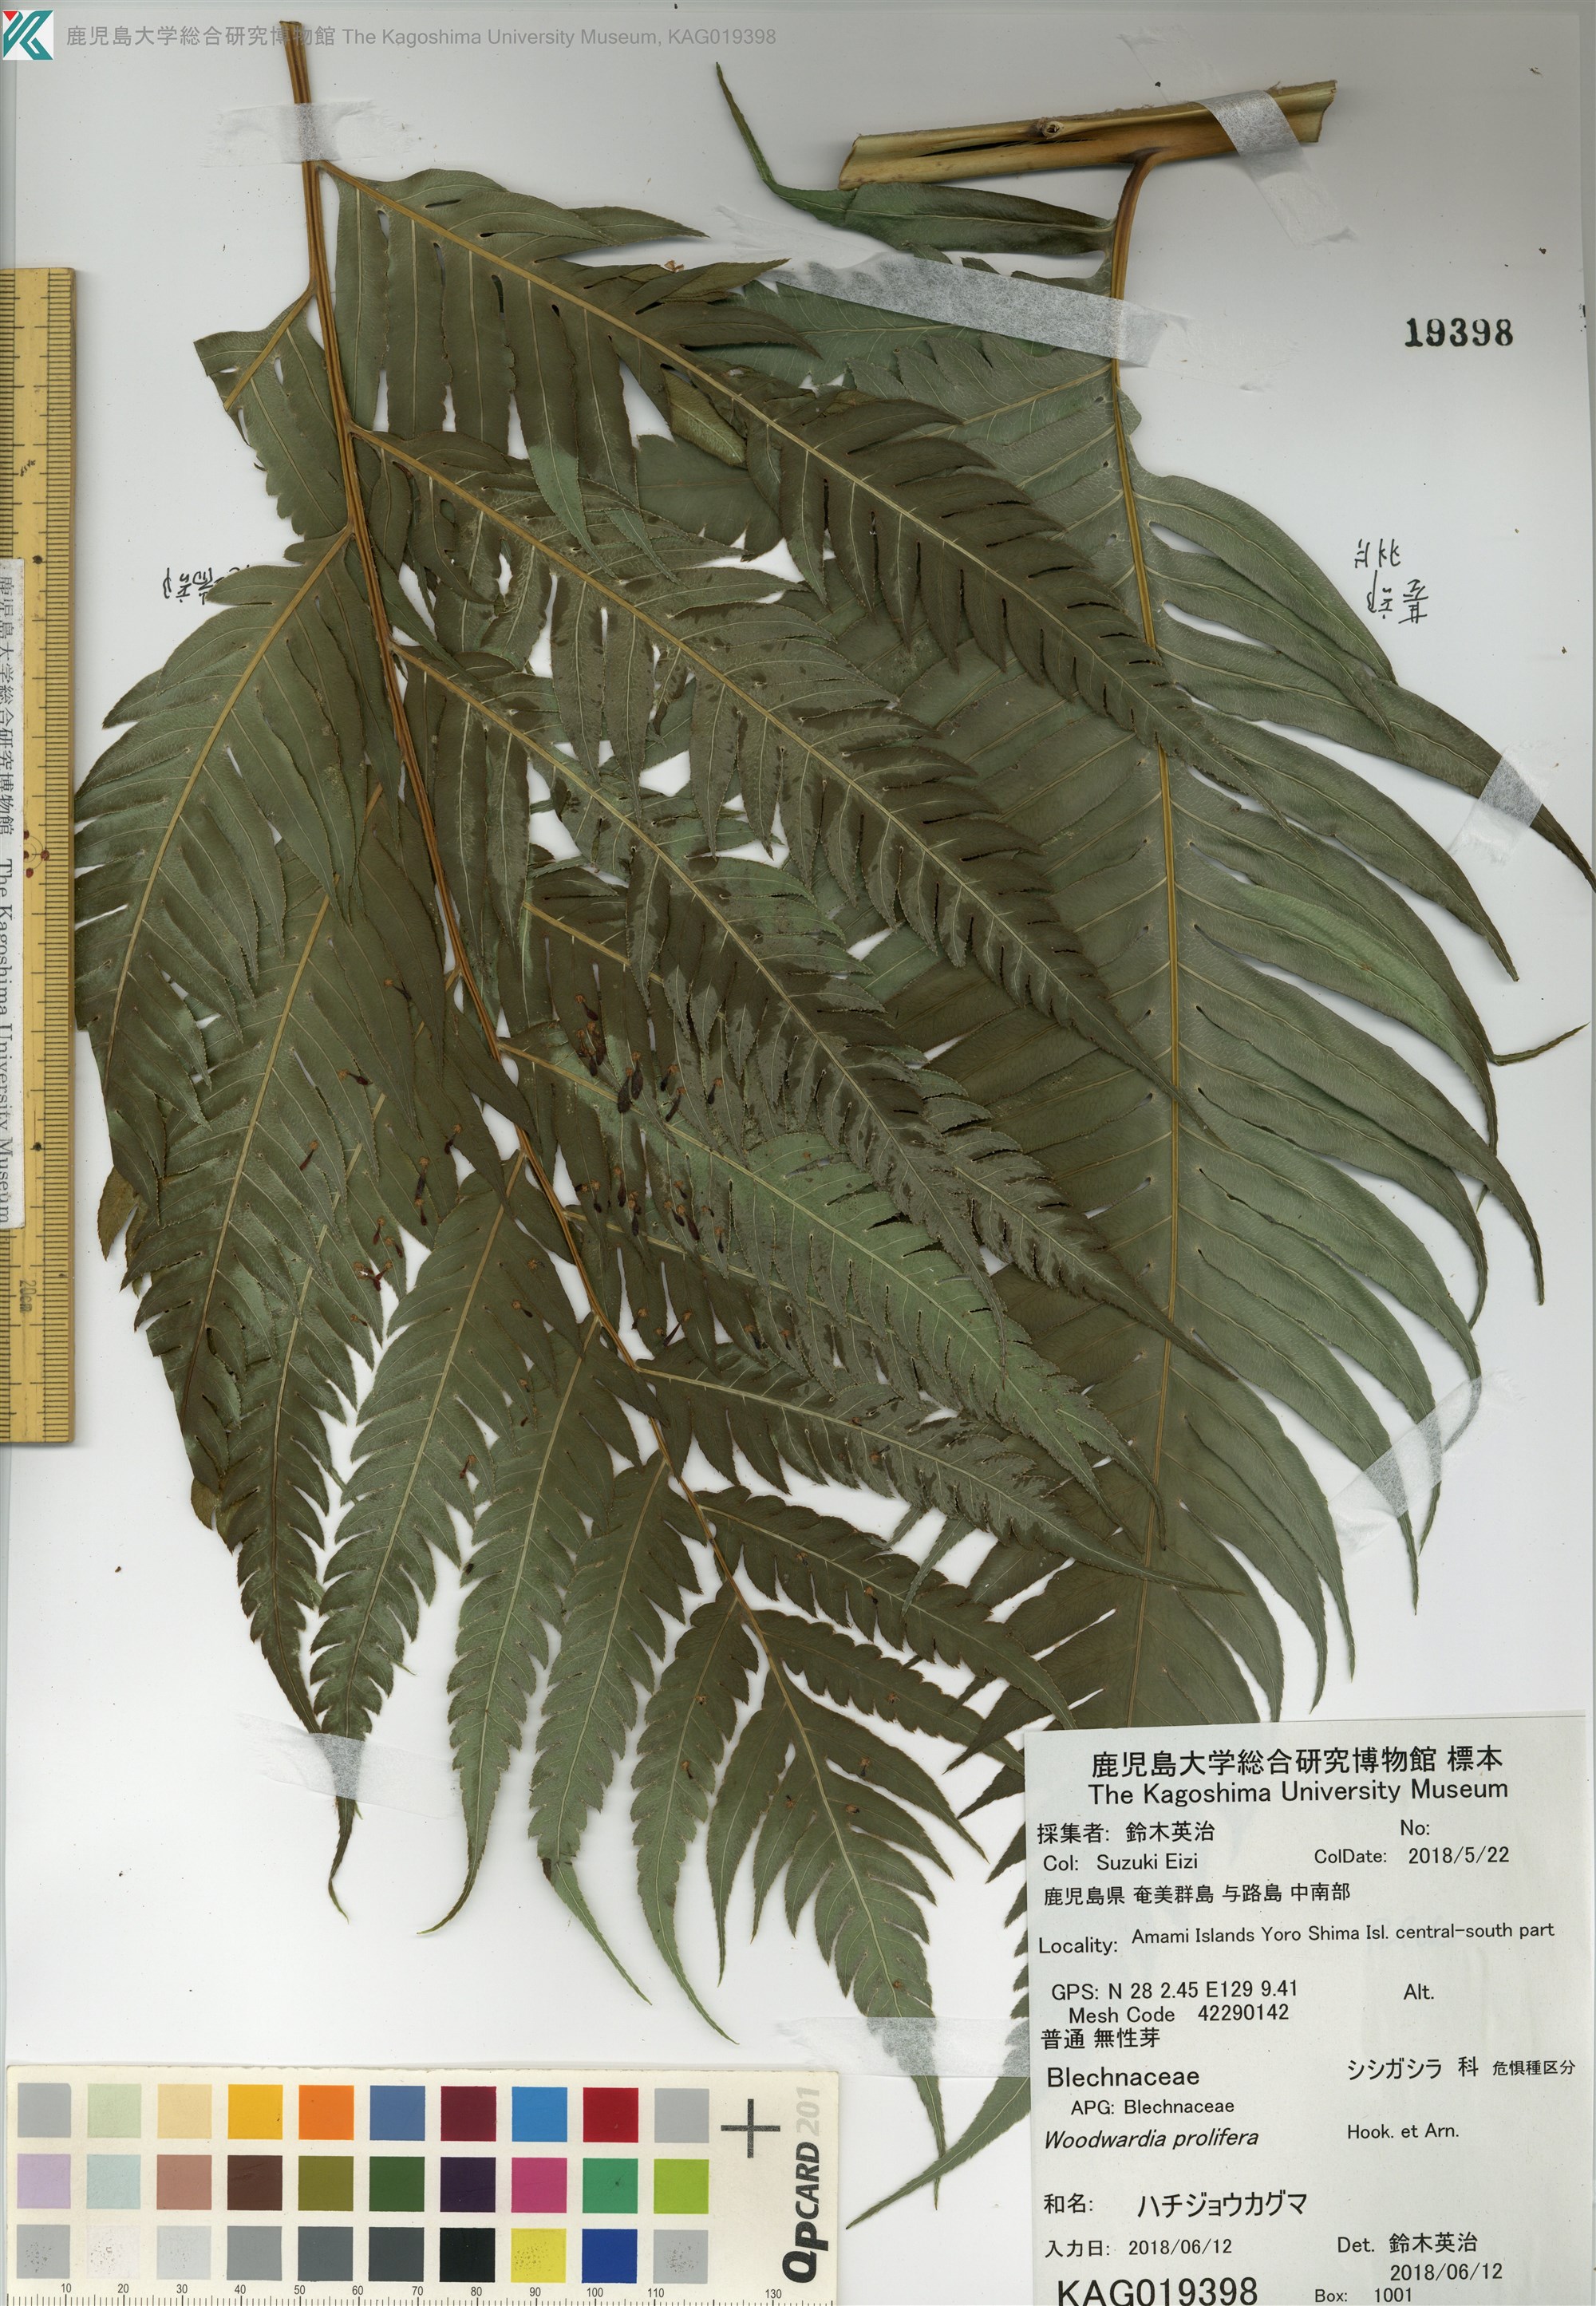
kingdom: Plantae
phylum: Tracheophyta
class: Polypodiopsida
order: Polypodiales
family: Blechnaceae
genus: Woodwardia
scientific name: Woodwardia prolifera
